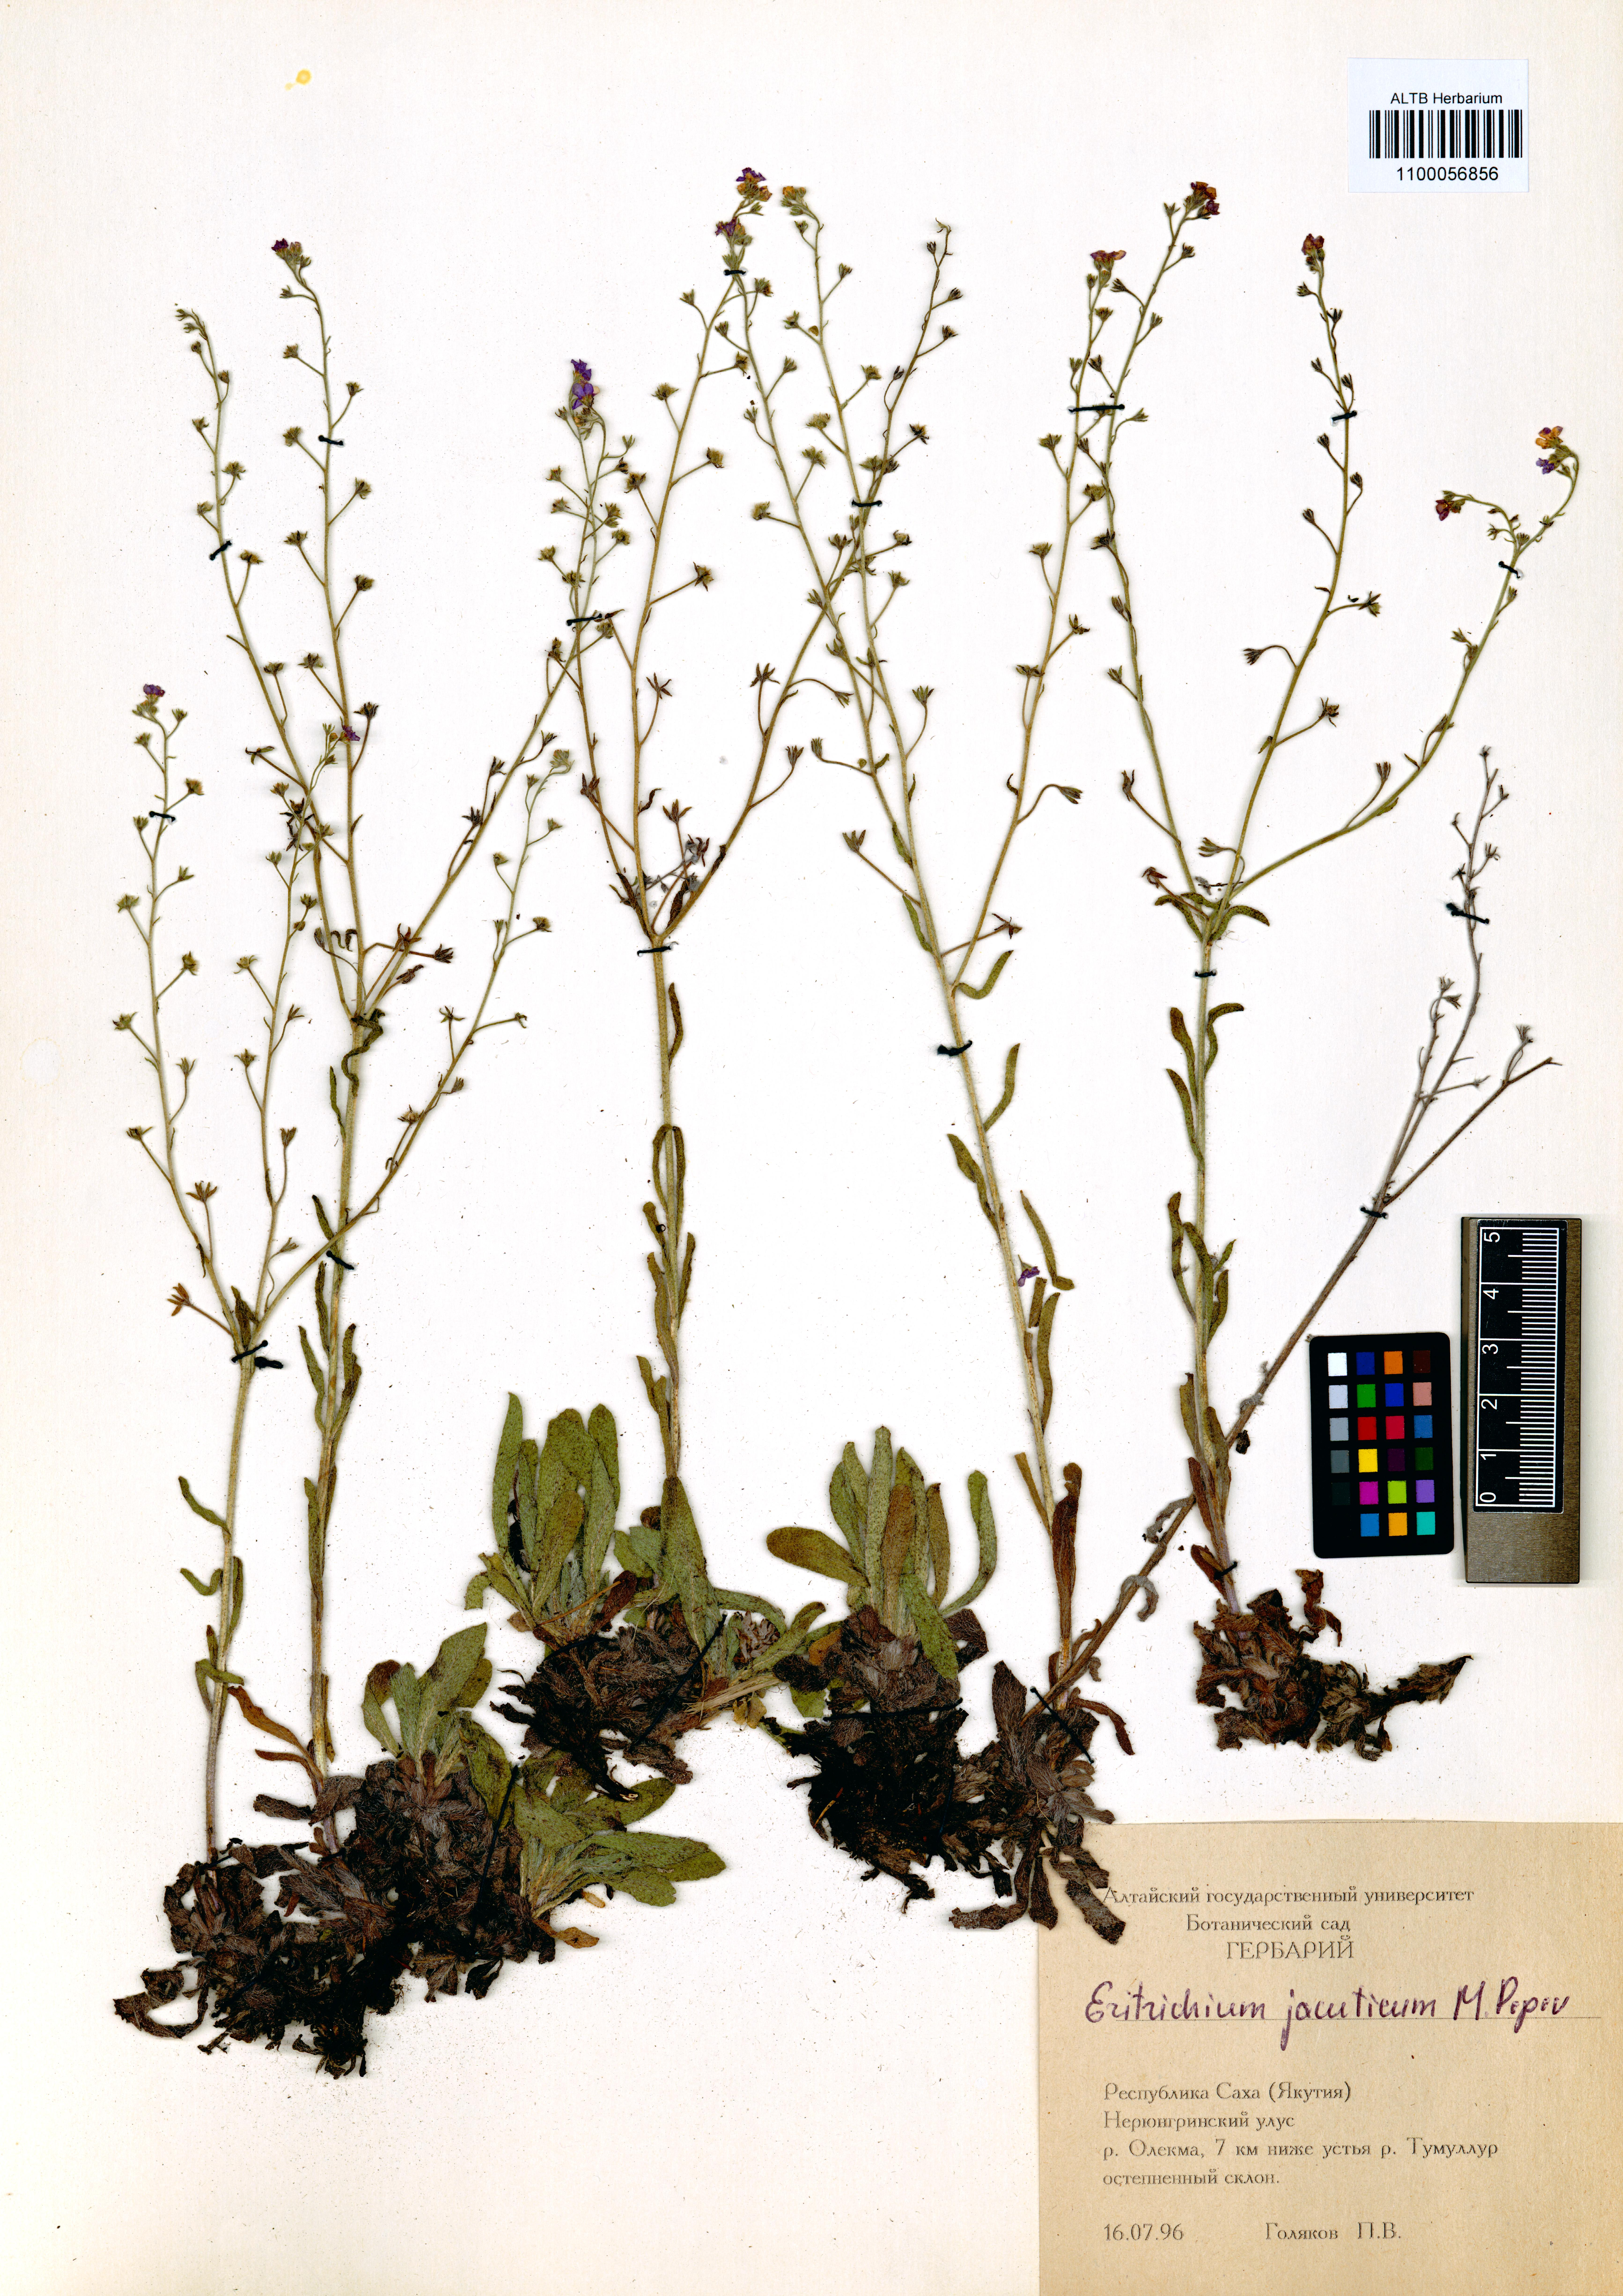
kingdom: Plantae
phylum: Tracheophyta
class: Magnoliopsida
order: Boraginales
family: Boraginaceae
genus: Eritrichium
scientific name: Eritrichium jacuticum
